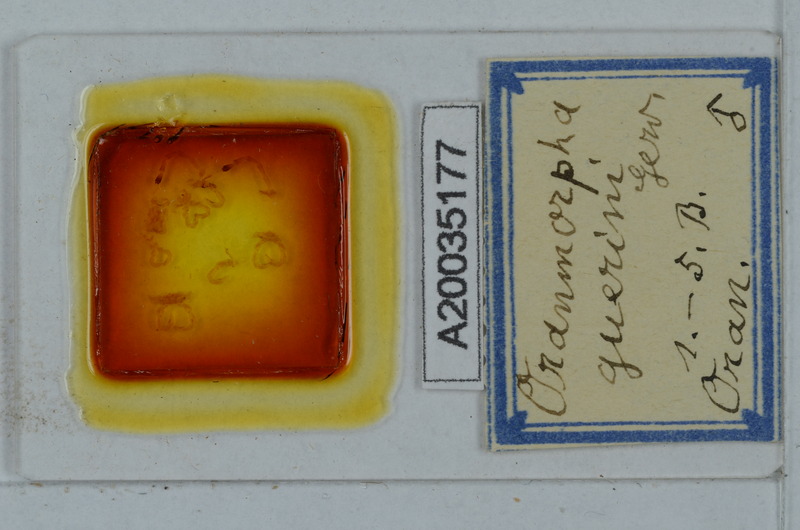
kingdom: Animalia
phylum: Arthropoda
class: Diplopoda
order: Polydesmida
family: Paradoxosomatidae
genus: Oranmorpha
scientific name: Oranmorpha guerinii
